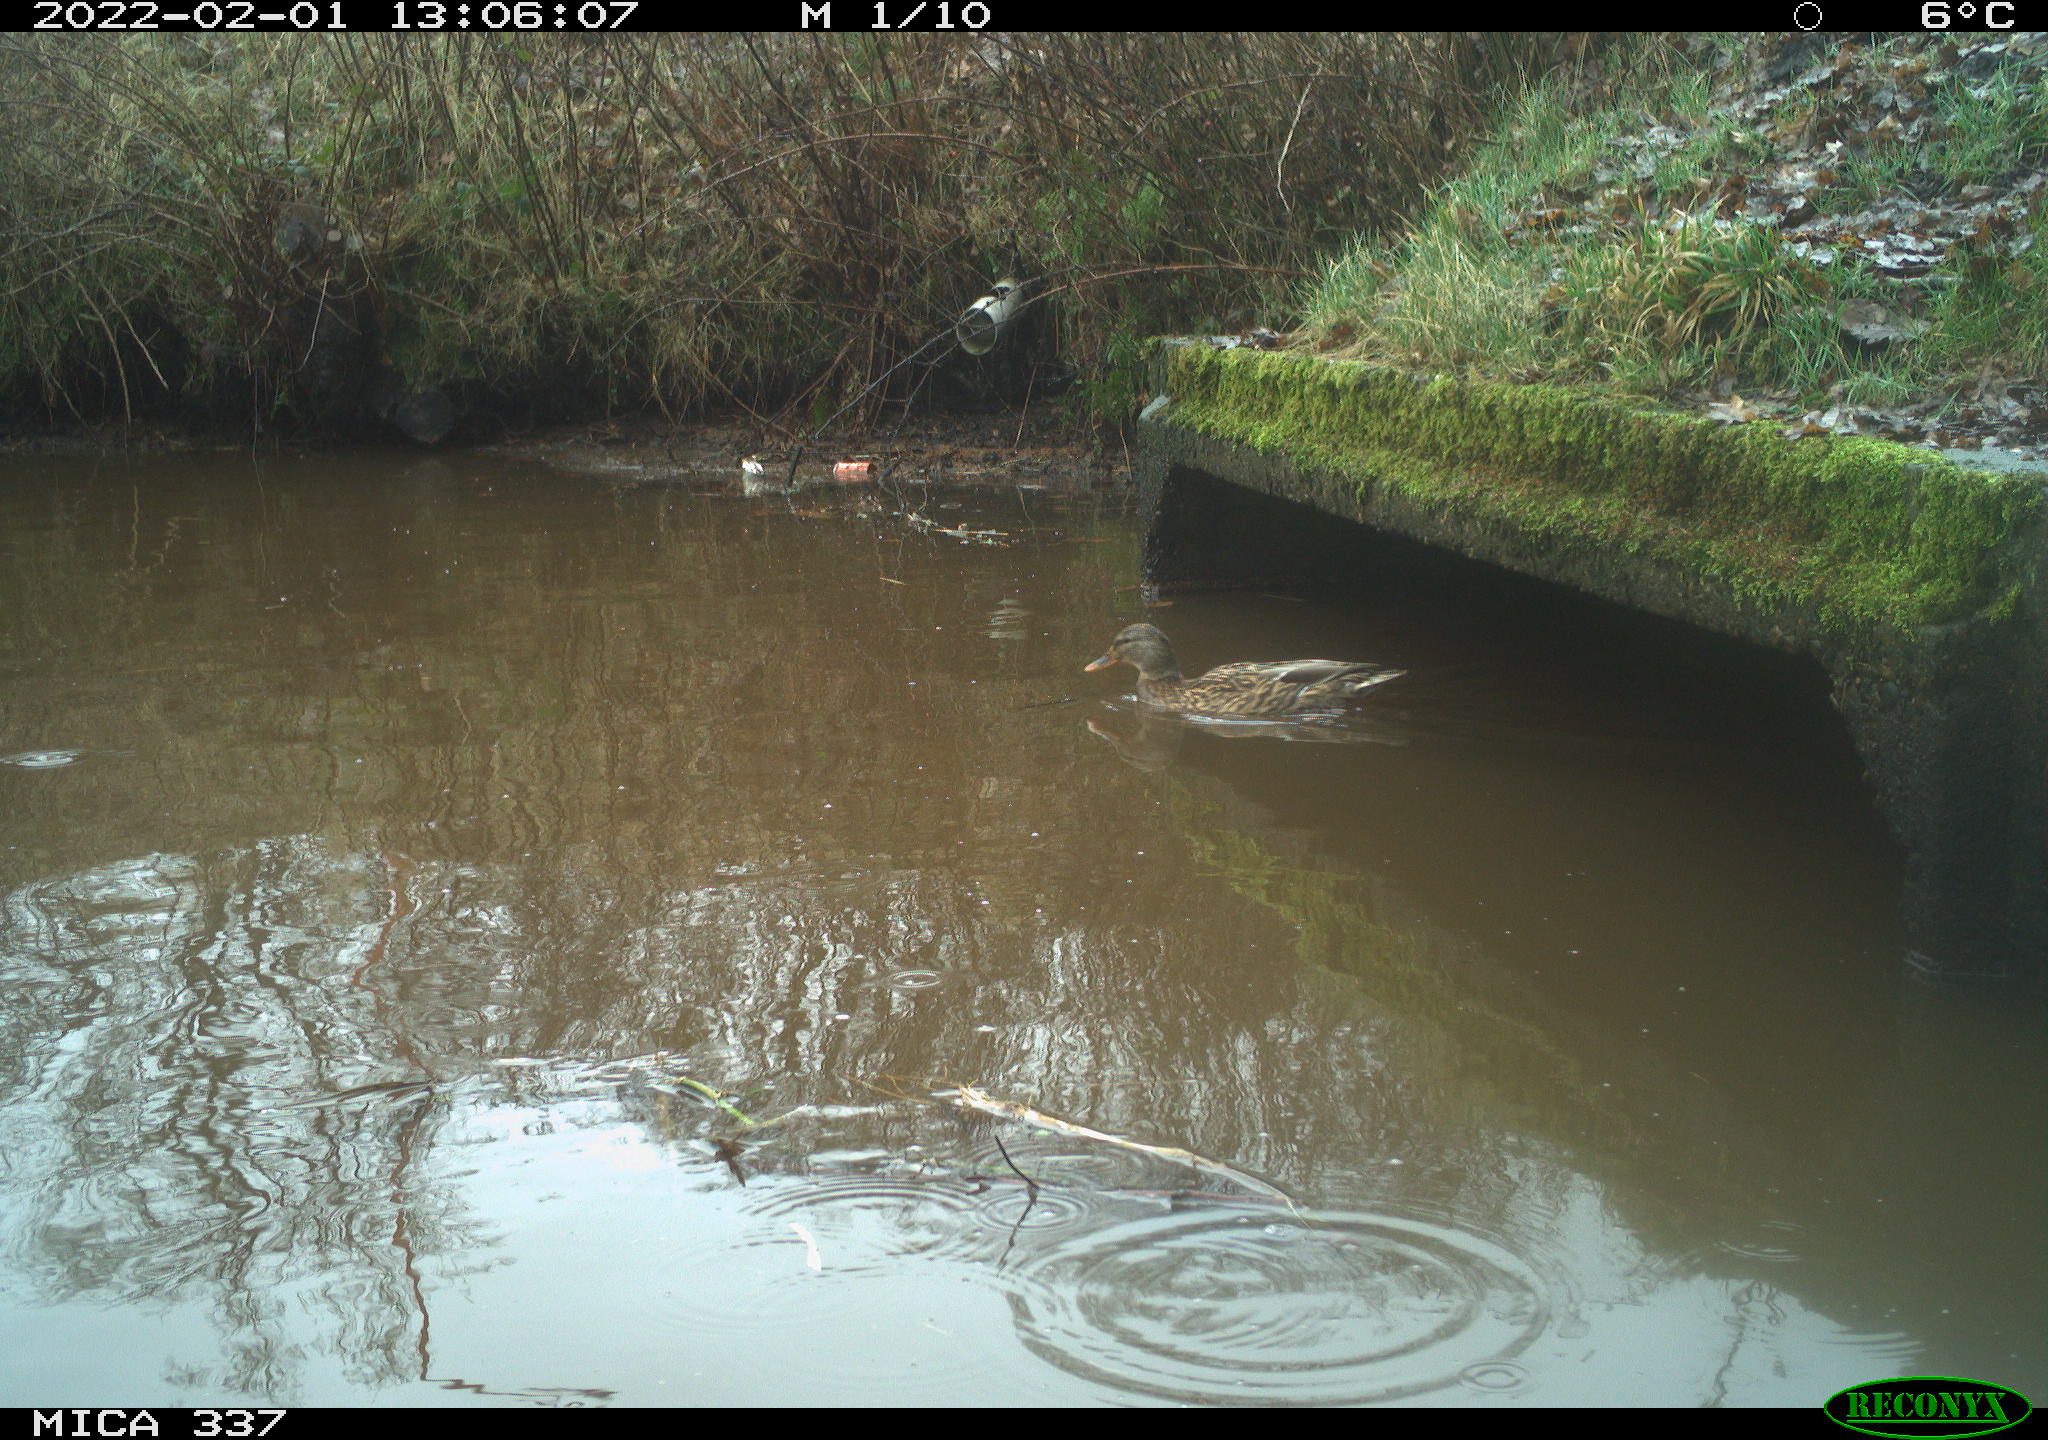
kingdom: Animalia
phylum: Chordata
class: Aves
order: Anseriformes
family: Anatidae
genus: Anas
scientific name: Anas platyrhynchos
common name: Mallard
